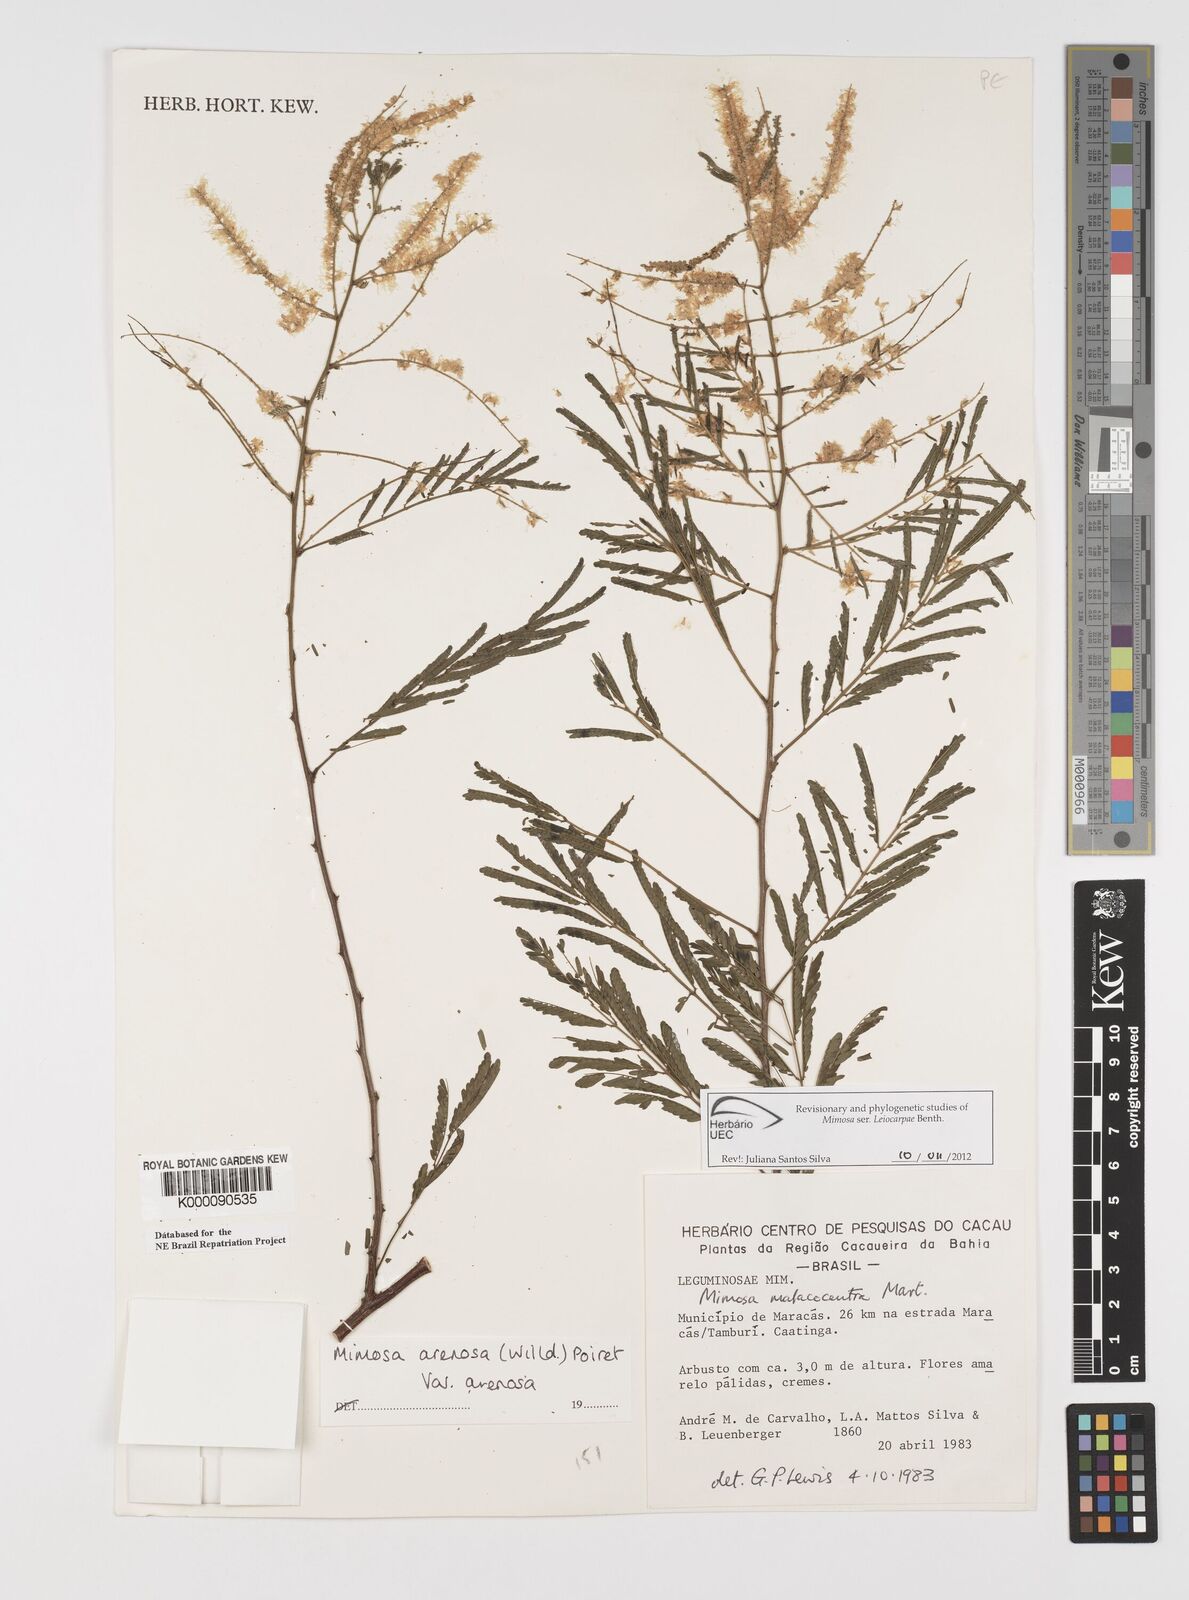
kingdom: Plantae
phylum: Tracheophyta
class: Magnoliopsida
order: Fabales
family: Fabaceae
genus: Mimosa
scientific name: Mimosa arenosa
